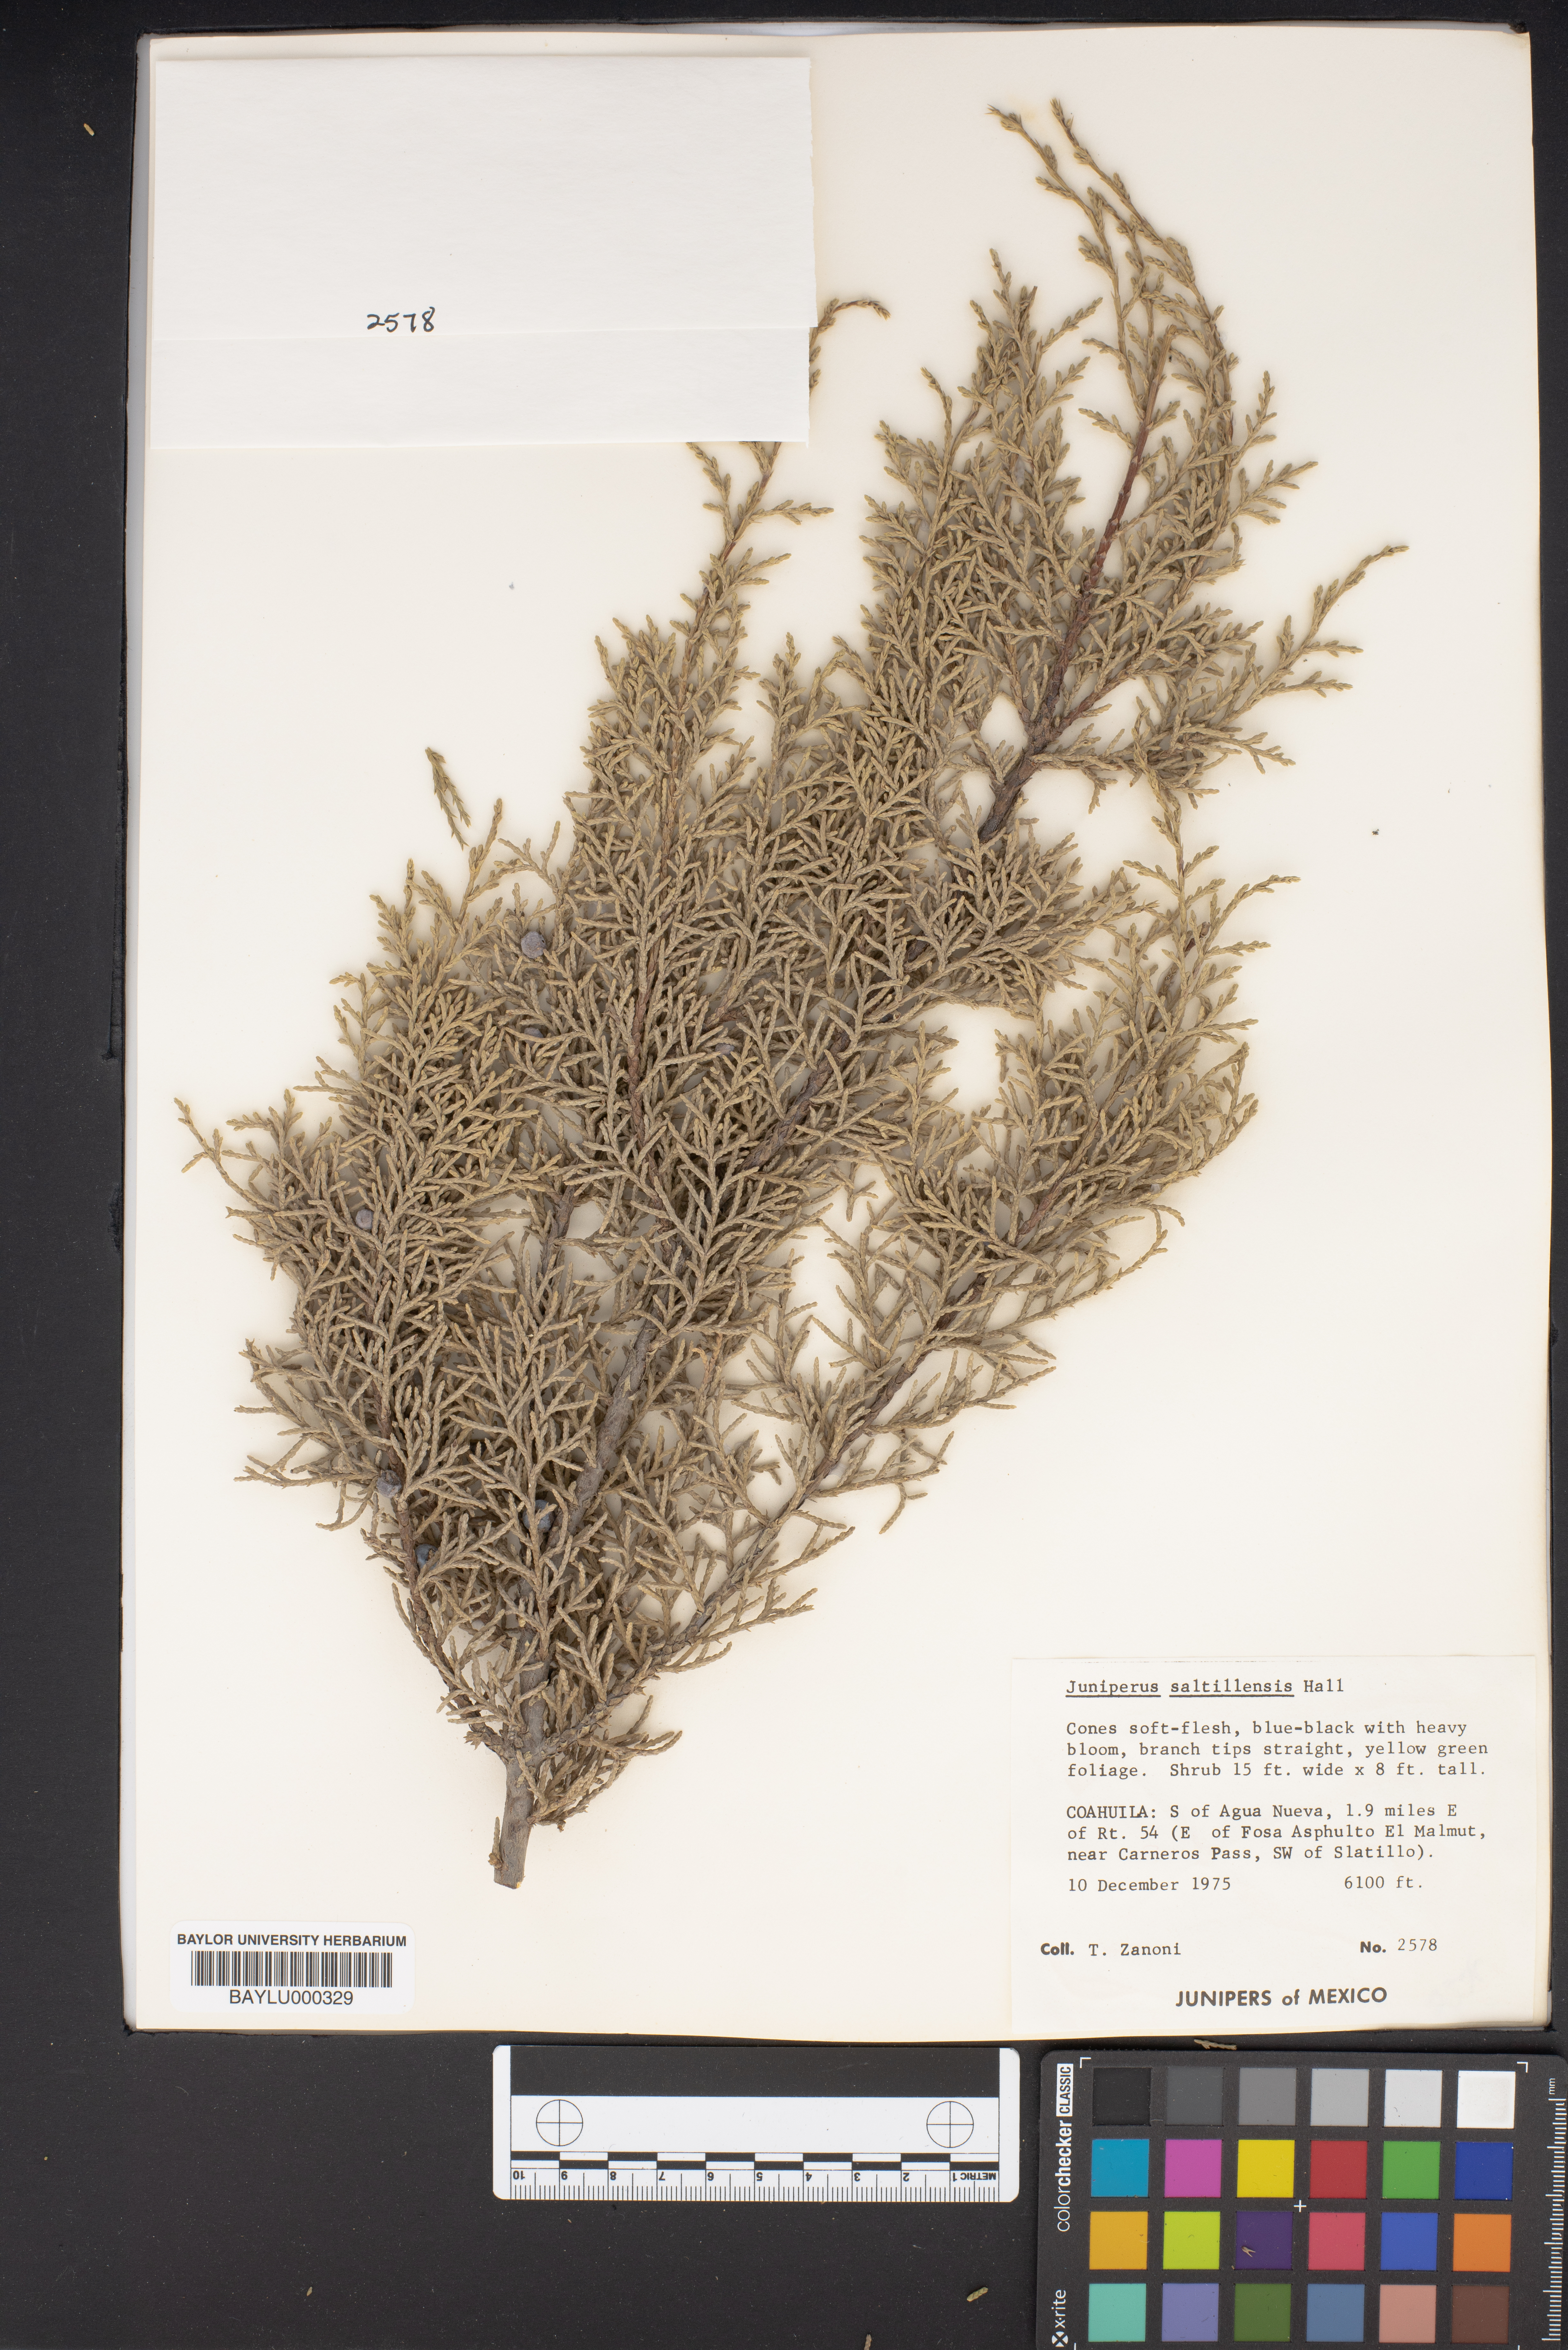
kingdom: Plantae
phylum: Tracheophyta
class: Pinopsida
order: Pinales
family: Cupressaceae
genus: Juniperus
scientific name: Juniperus saltillensis
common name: Saltillo juniper
